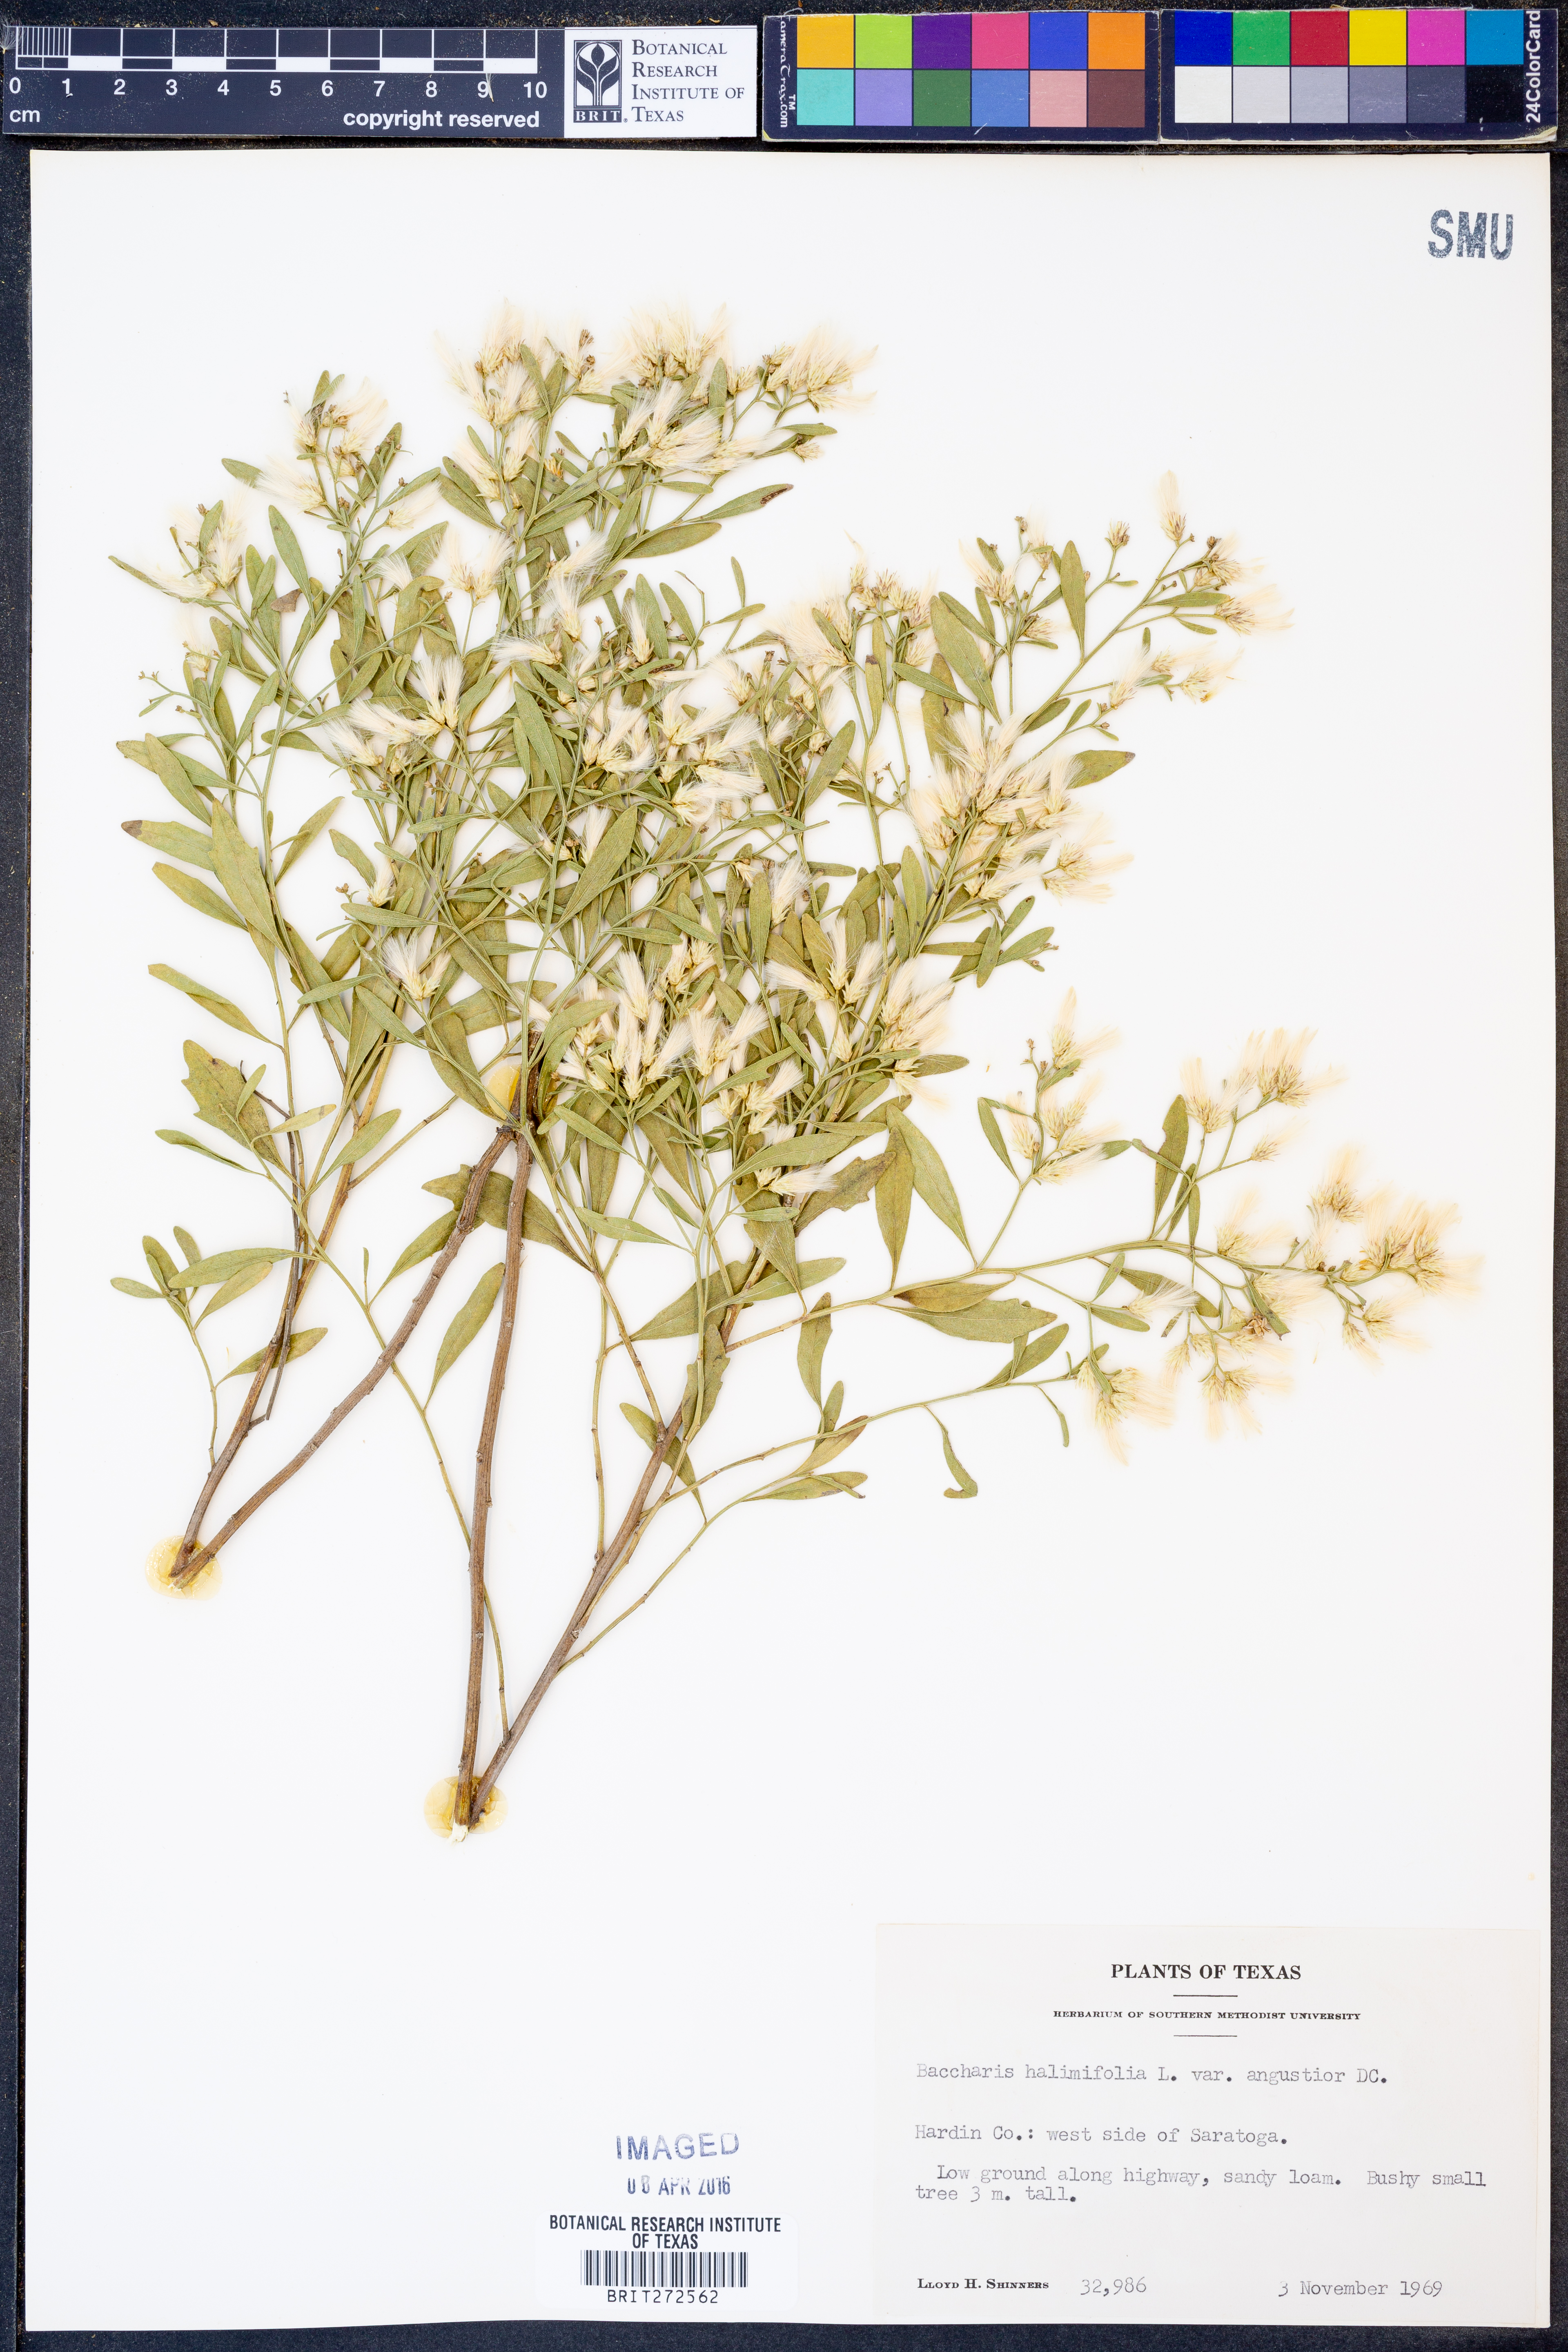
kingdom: Plantae
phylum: Tracheophyta
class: Magnoliopsida
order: Asterales
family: Asteraceae
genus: Baccharis
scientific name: Baccharis halimifolia
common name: Eastern baccharis
